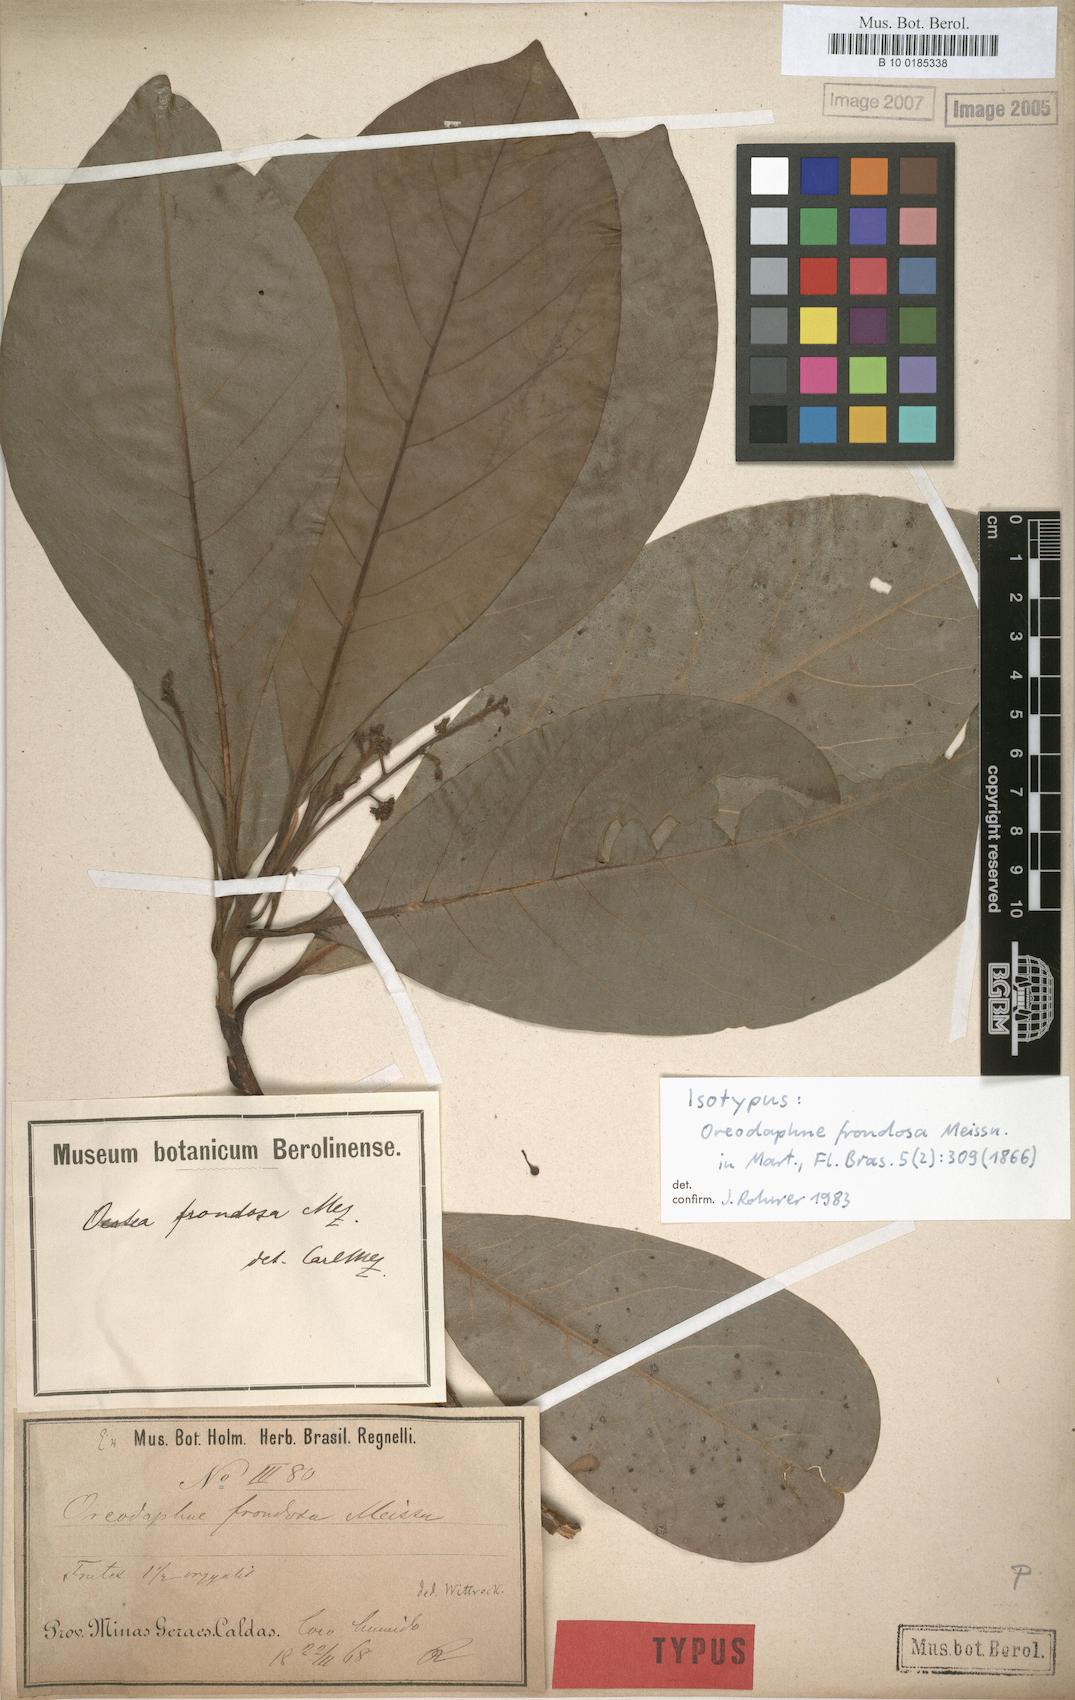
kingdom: Plantae
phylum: Tracheophyta
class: Magnoliopsida
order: Laurales
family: Lauraceae
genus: Ocotea
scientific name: Ocotea frondosa
